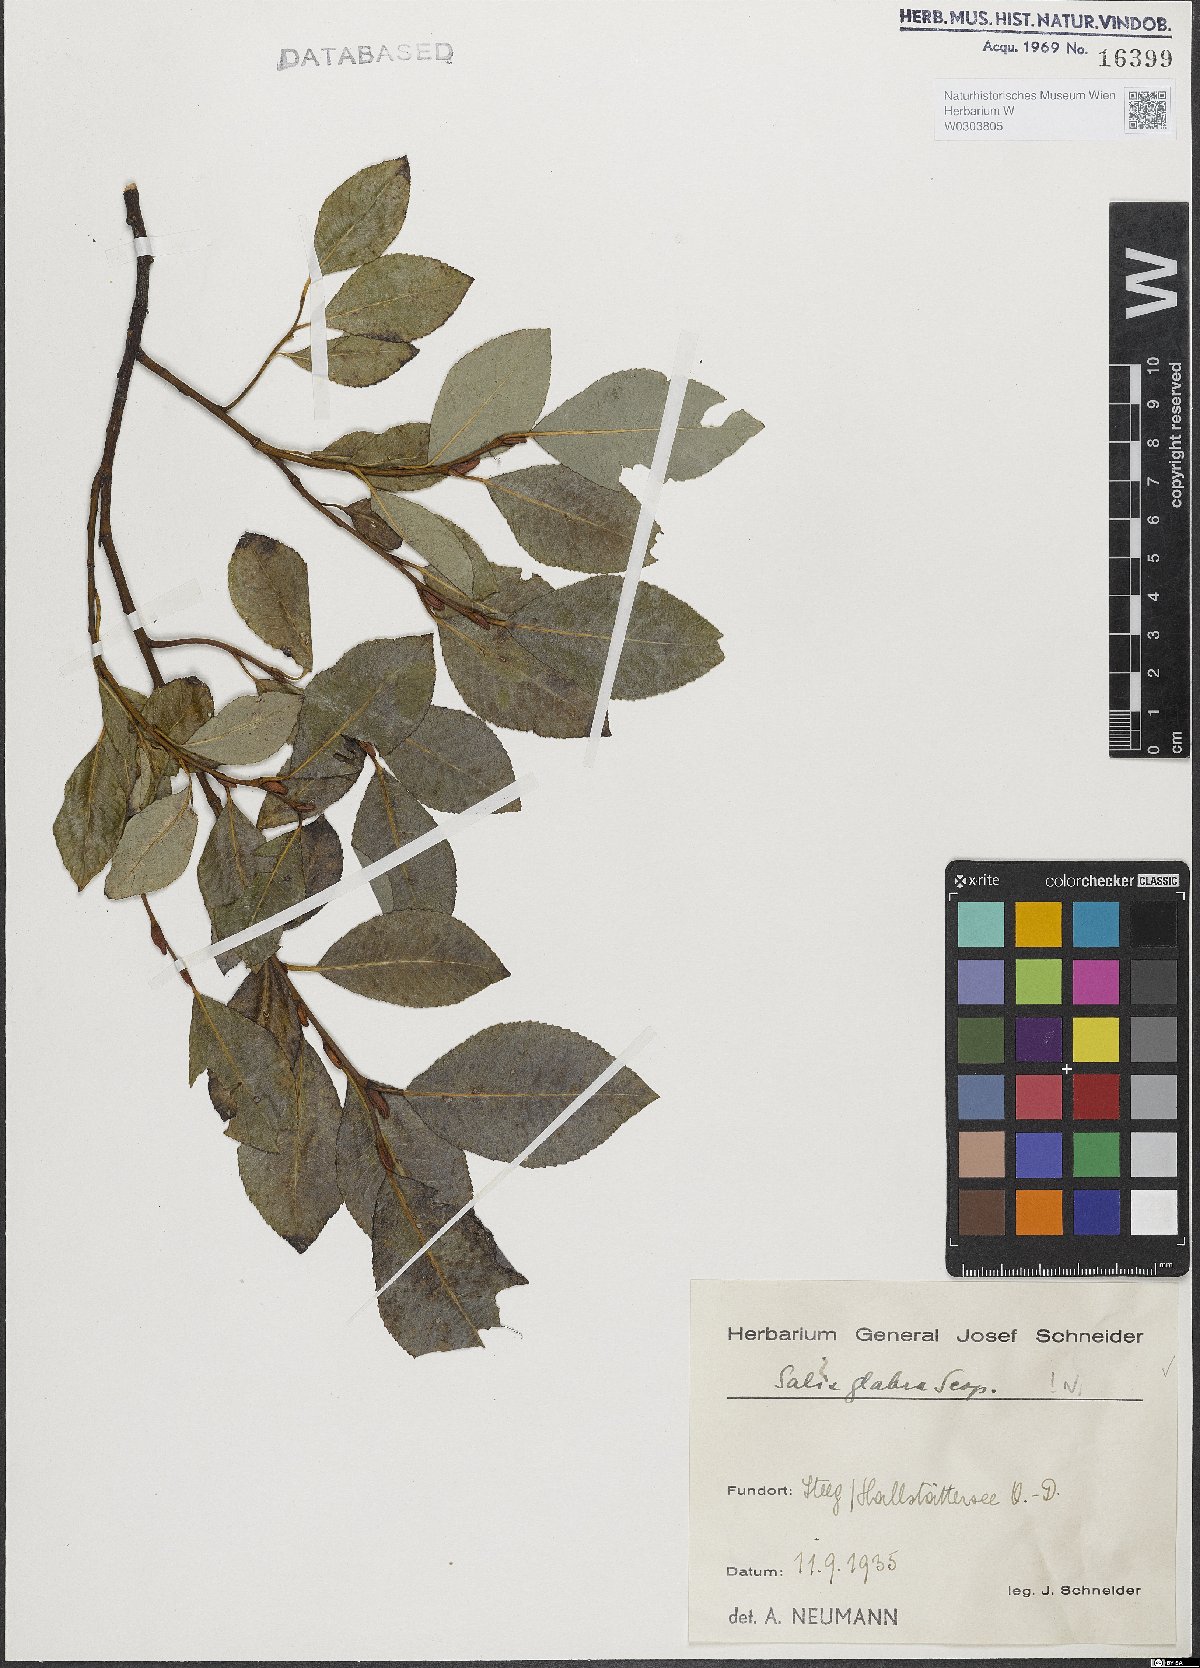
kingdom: Plantae
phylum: Tracheophyta
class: Magnoliopsida
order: Malpighiales
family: Salicaceae
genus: Salix
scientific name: Salix glabra
